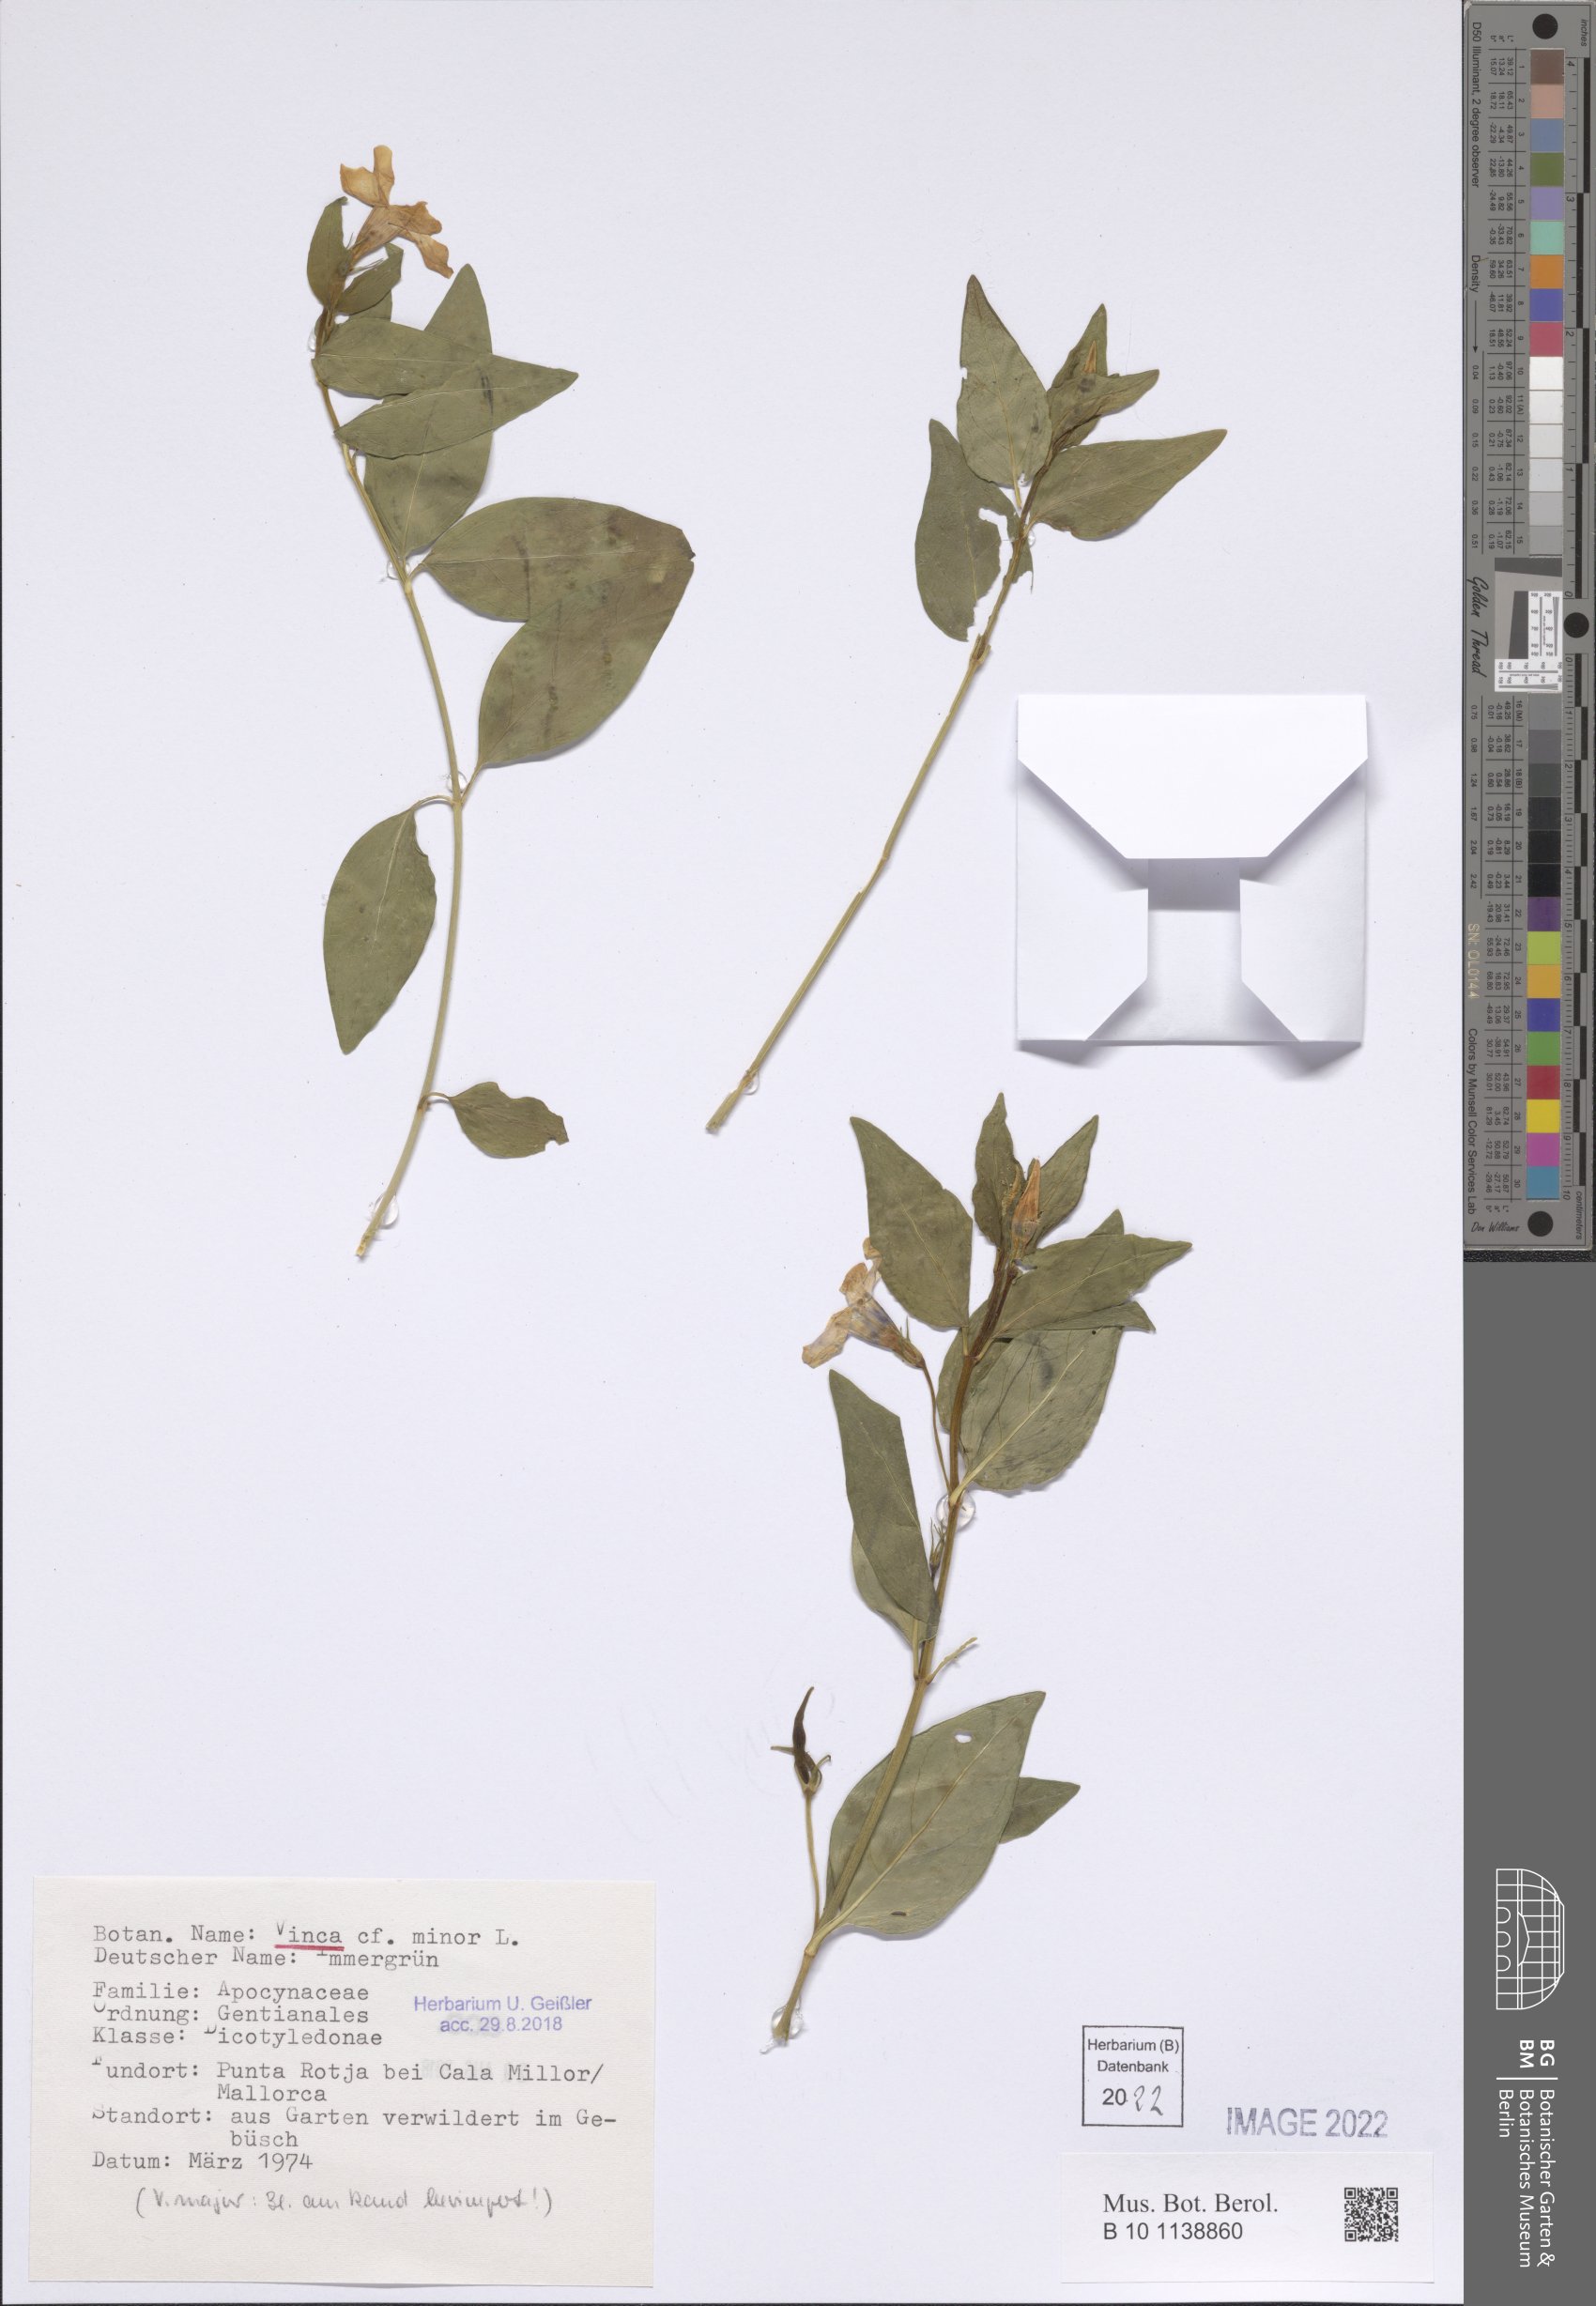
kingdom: Plantae
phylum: Tracheophyta
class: Magnoliopsida
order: Gentianales
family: Apocynaceae
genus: Vinca
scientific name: Vinca minor
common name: Lesser periwinkle
